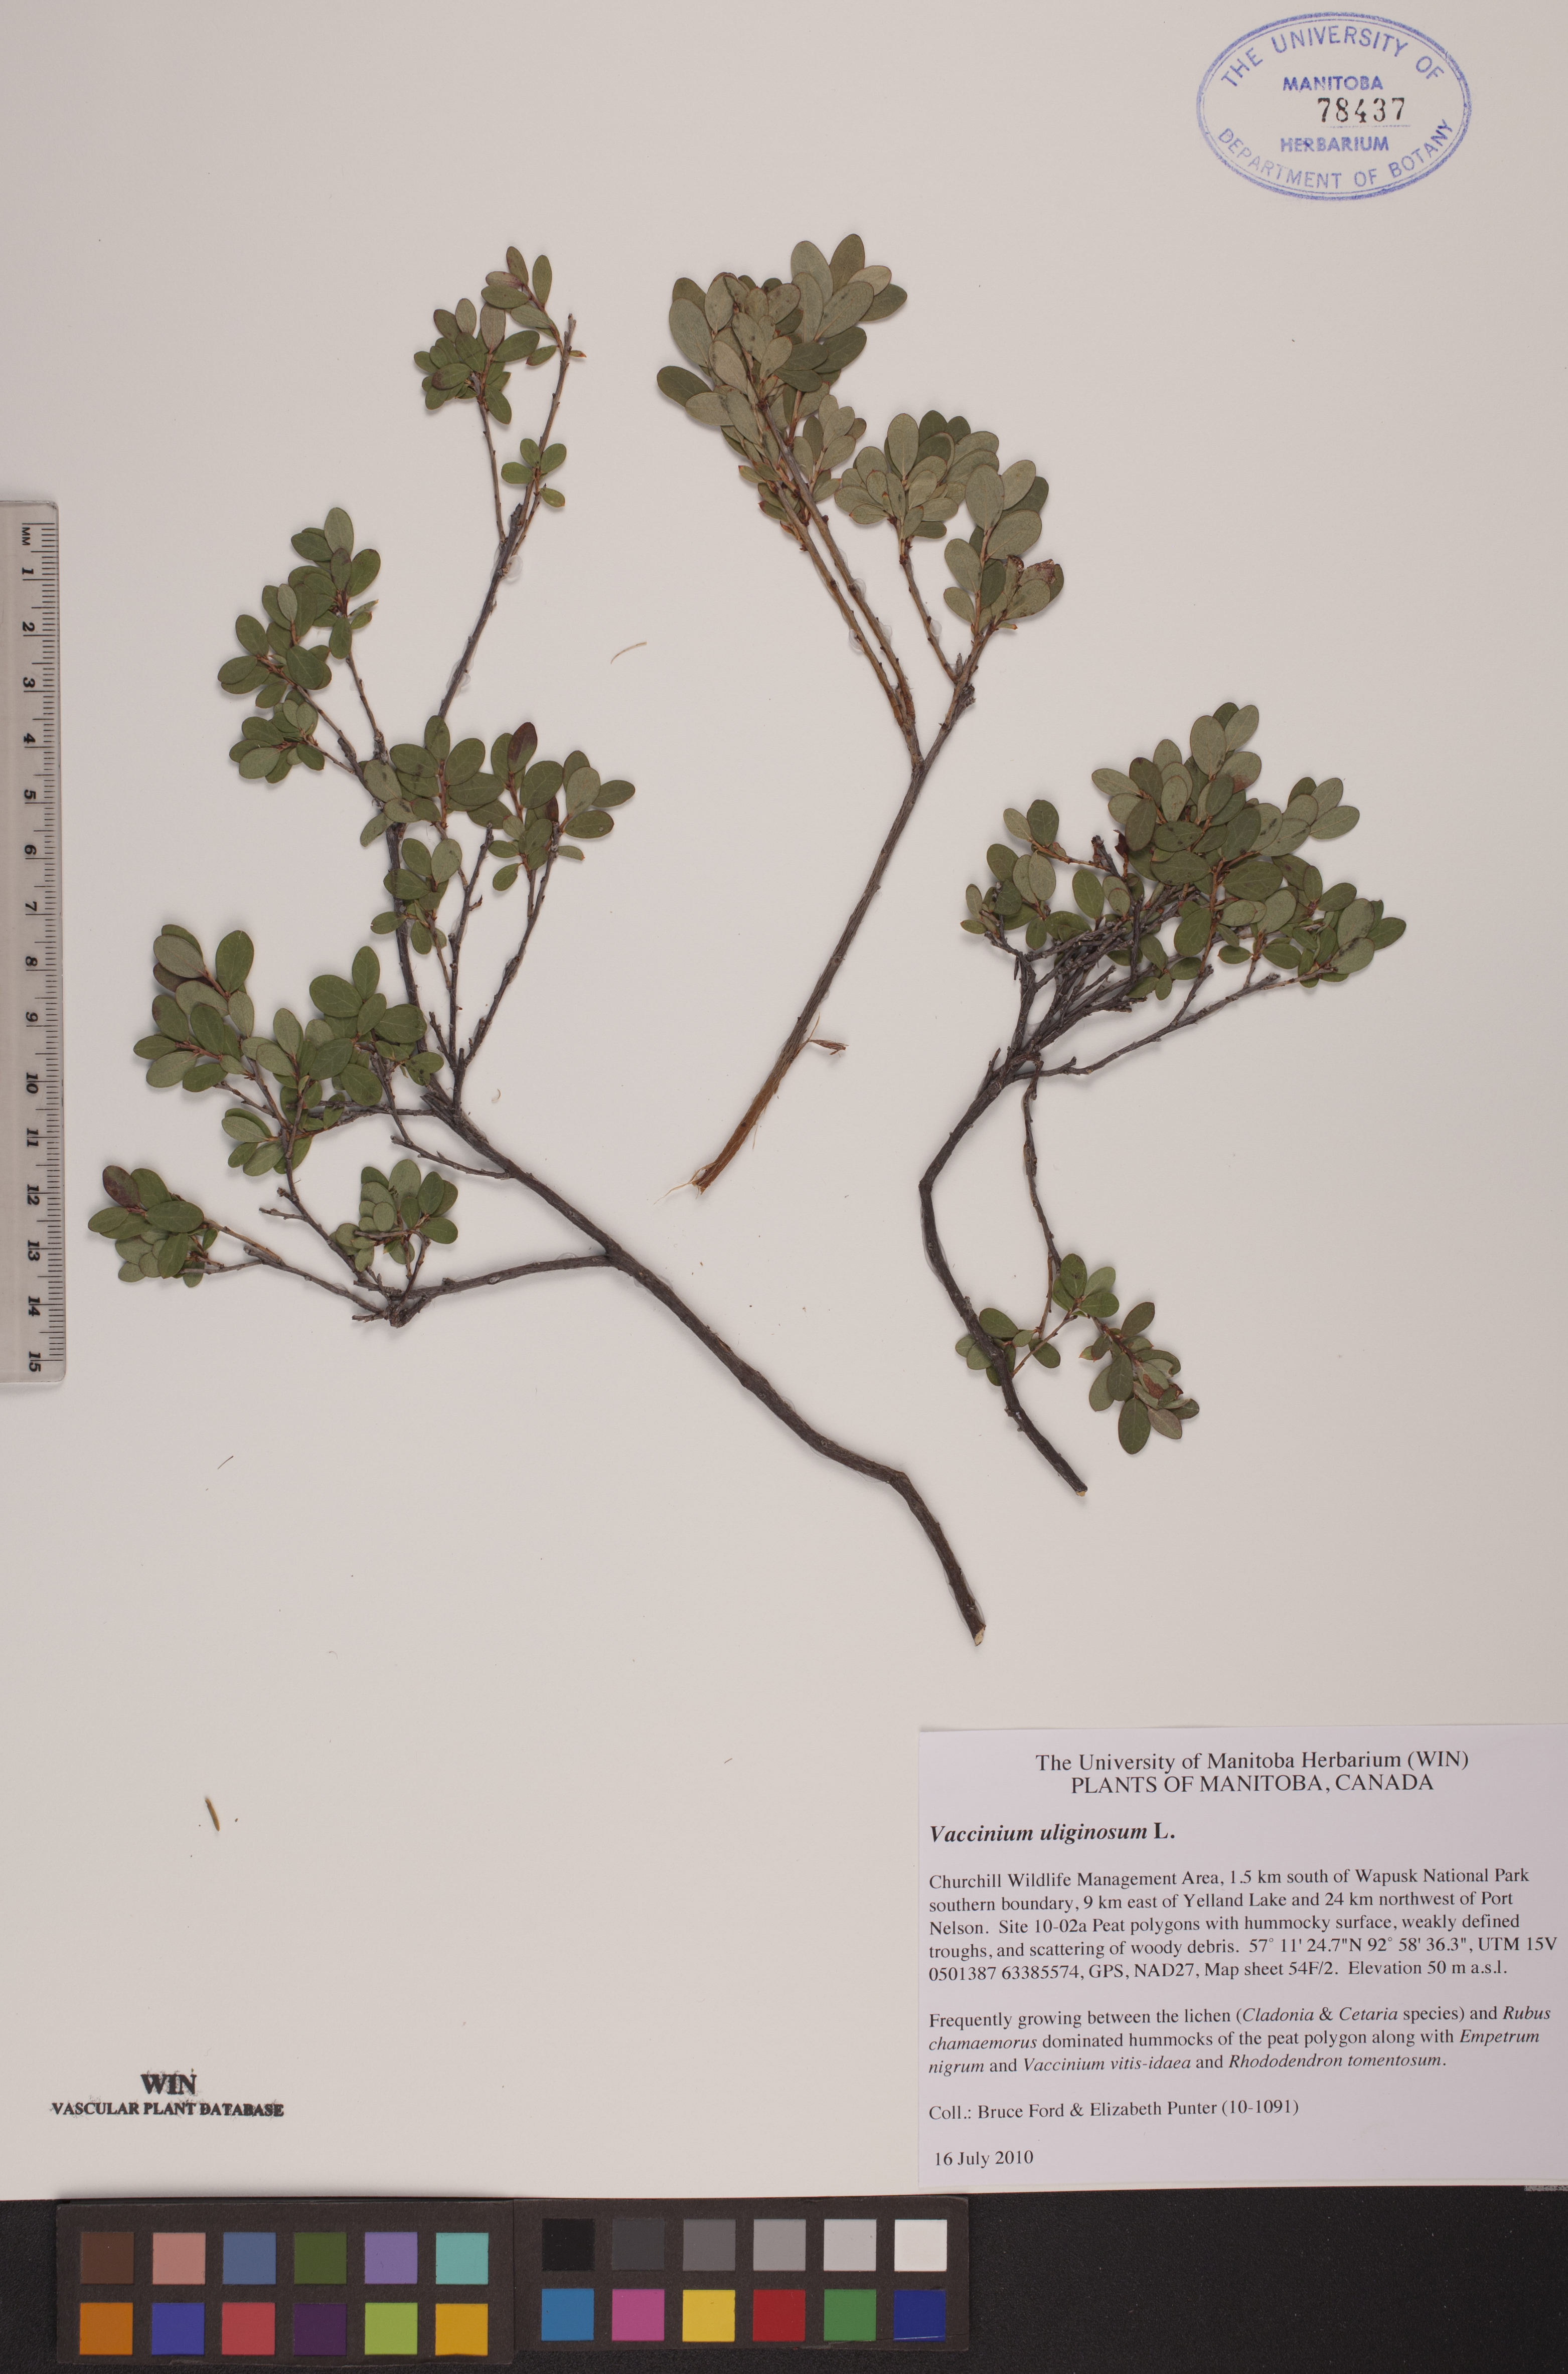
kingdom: Plantae
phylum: Tracheophyta
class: Magnoliopsida
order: Ericales
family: Ericaceae
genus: Vaccinium
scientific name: Vaccinium uliginosum
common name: Bog bilberry
